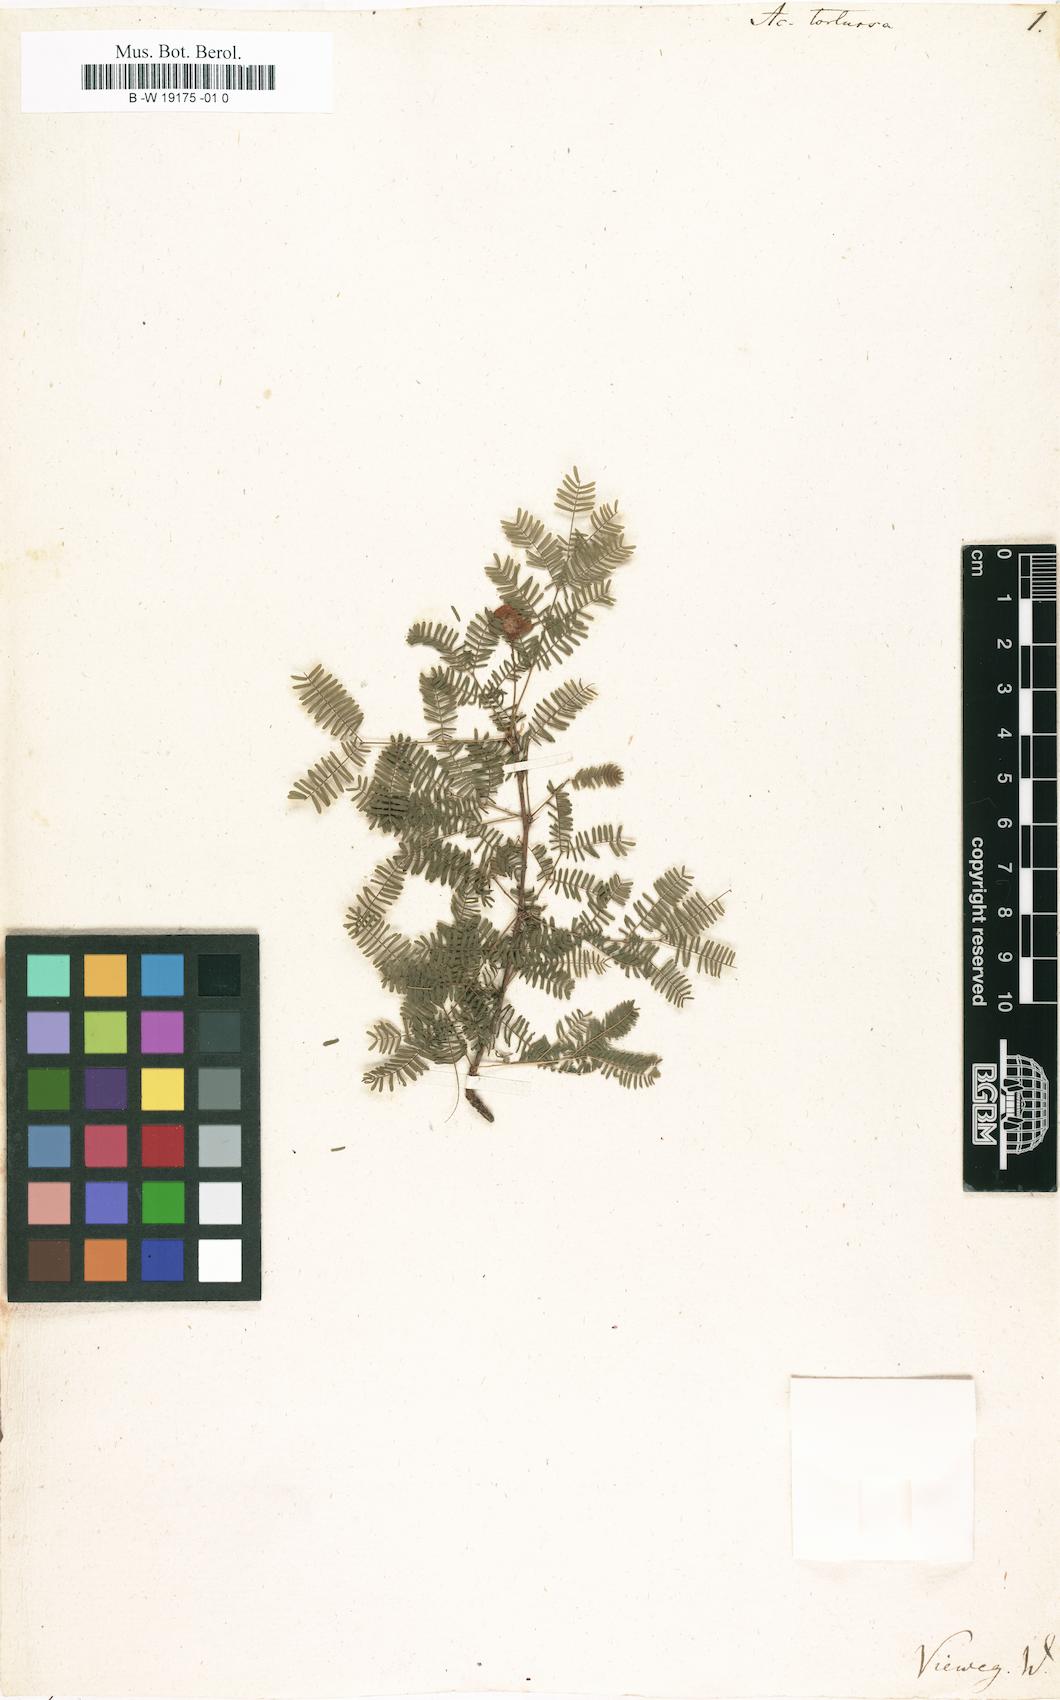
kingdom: Plantae
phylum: Tracheophyta
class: Magnoliopsida
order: Fabales
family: Fabaceae
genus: Vachellia
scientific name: Vachellia tortuosa
